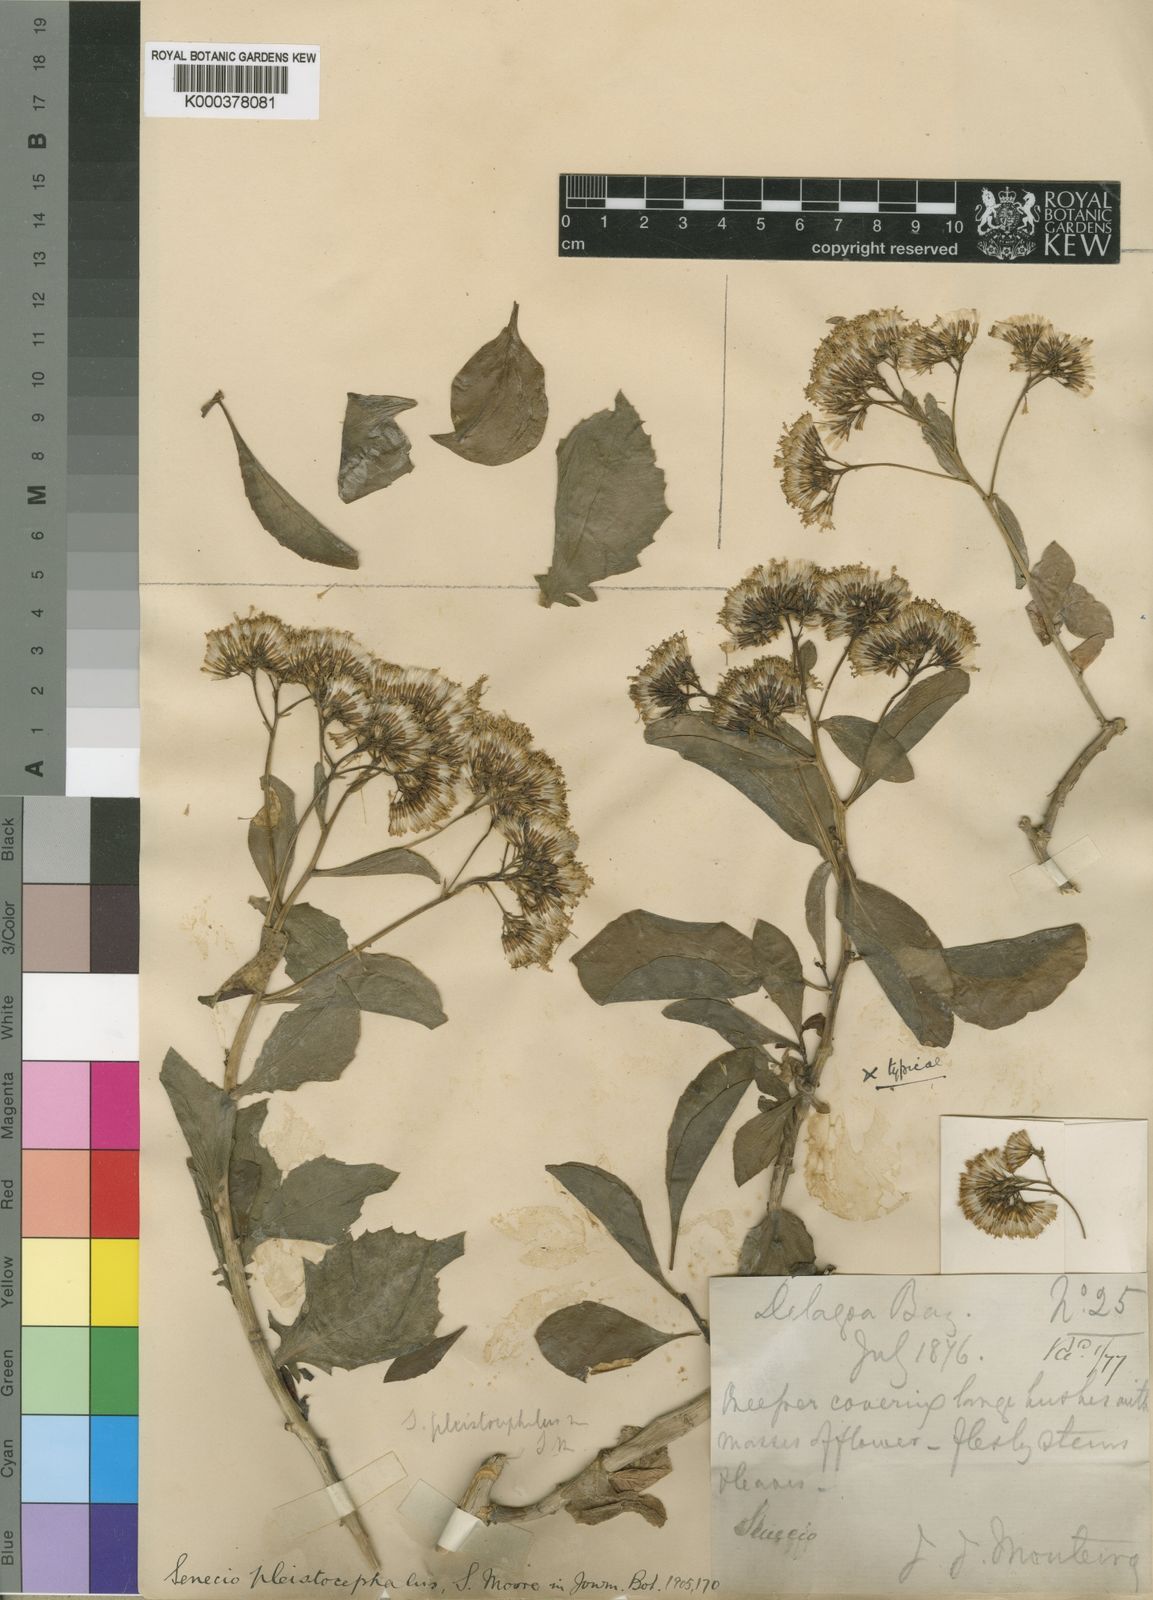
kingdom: Plantae
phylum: Tracheophyta
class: Magnoliopsida
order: Asterales
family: Asteraceae
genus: Senecio
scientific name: Senecio brachypodus
